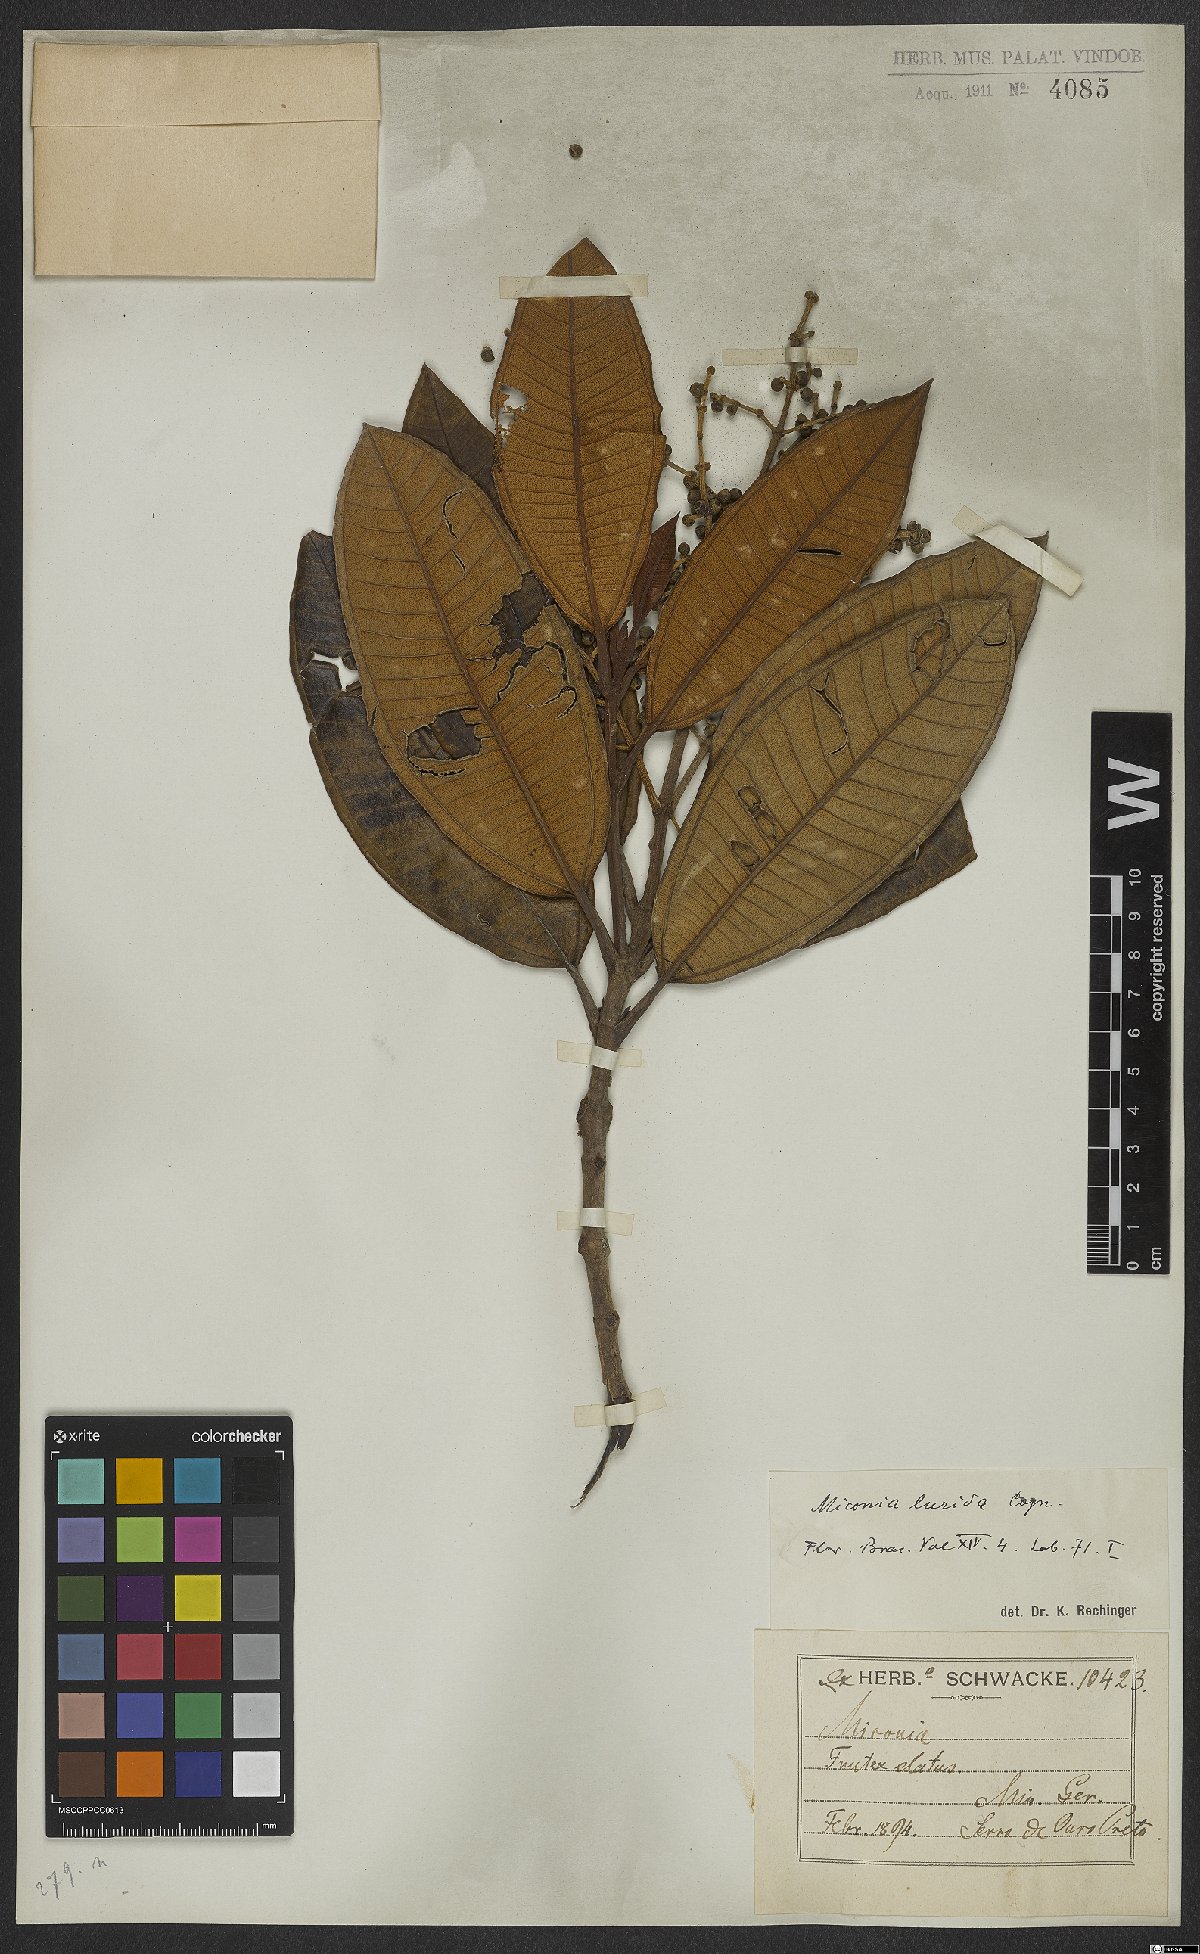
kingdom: Plantae
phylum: Tracheophyta
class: Magnoliopsida
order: Myrtales
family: Melastomataceae
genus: Miconia
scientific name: Miconia lurida
